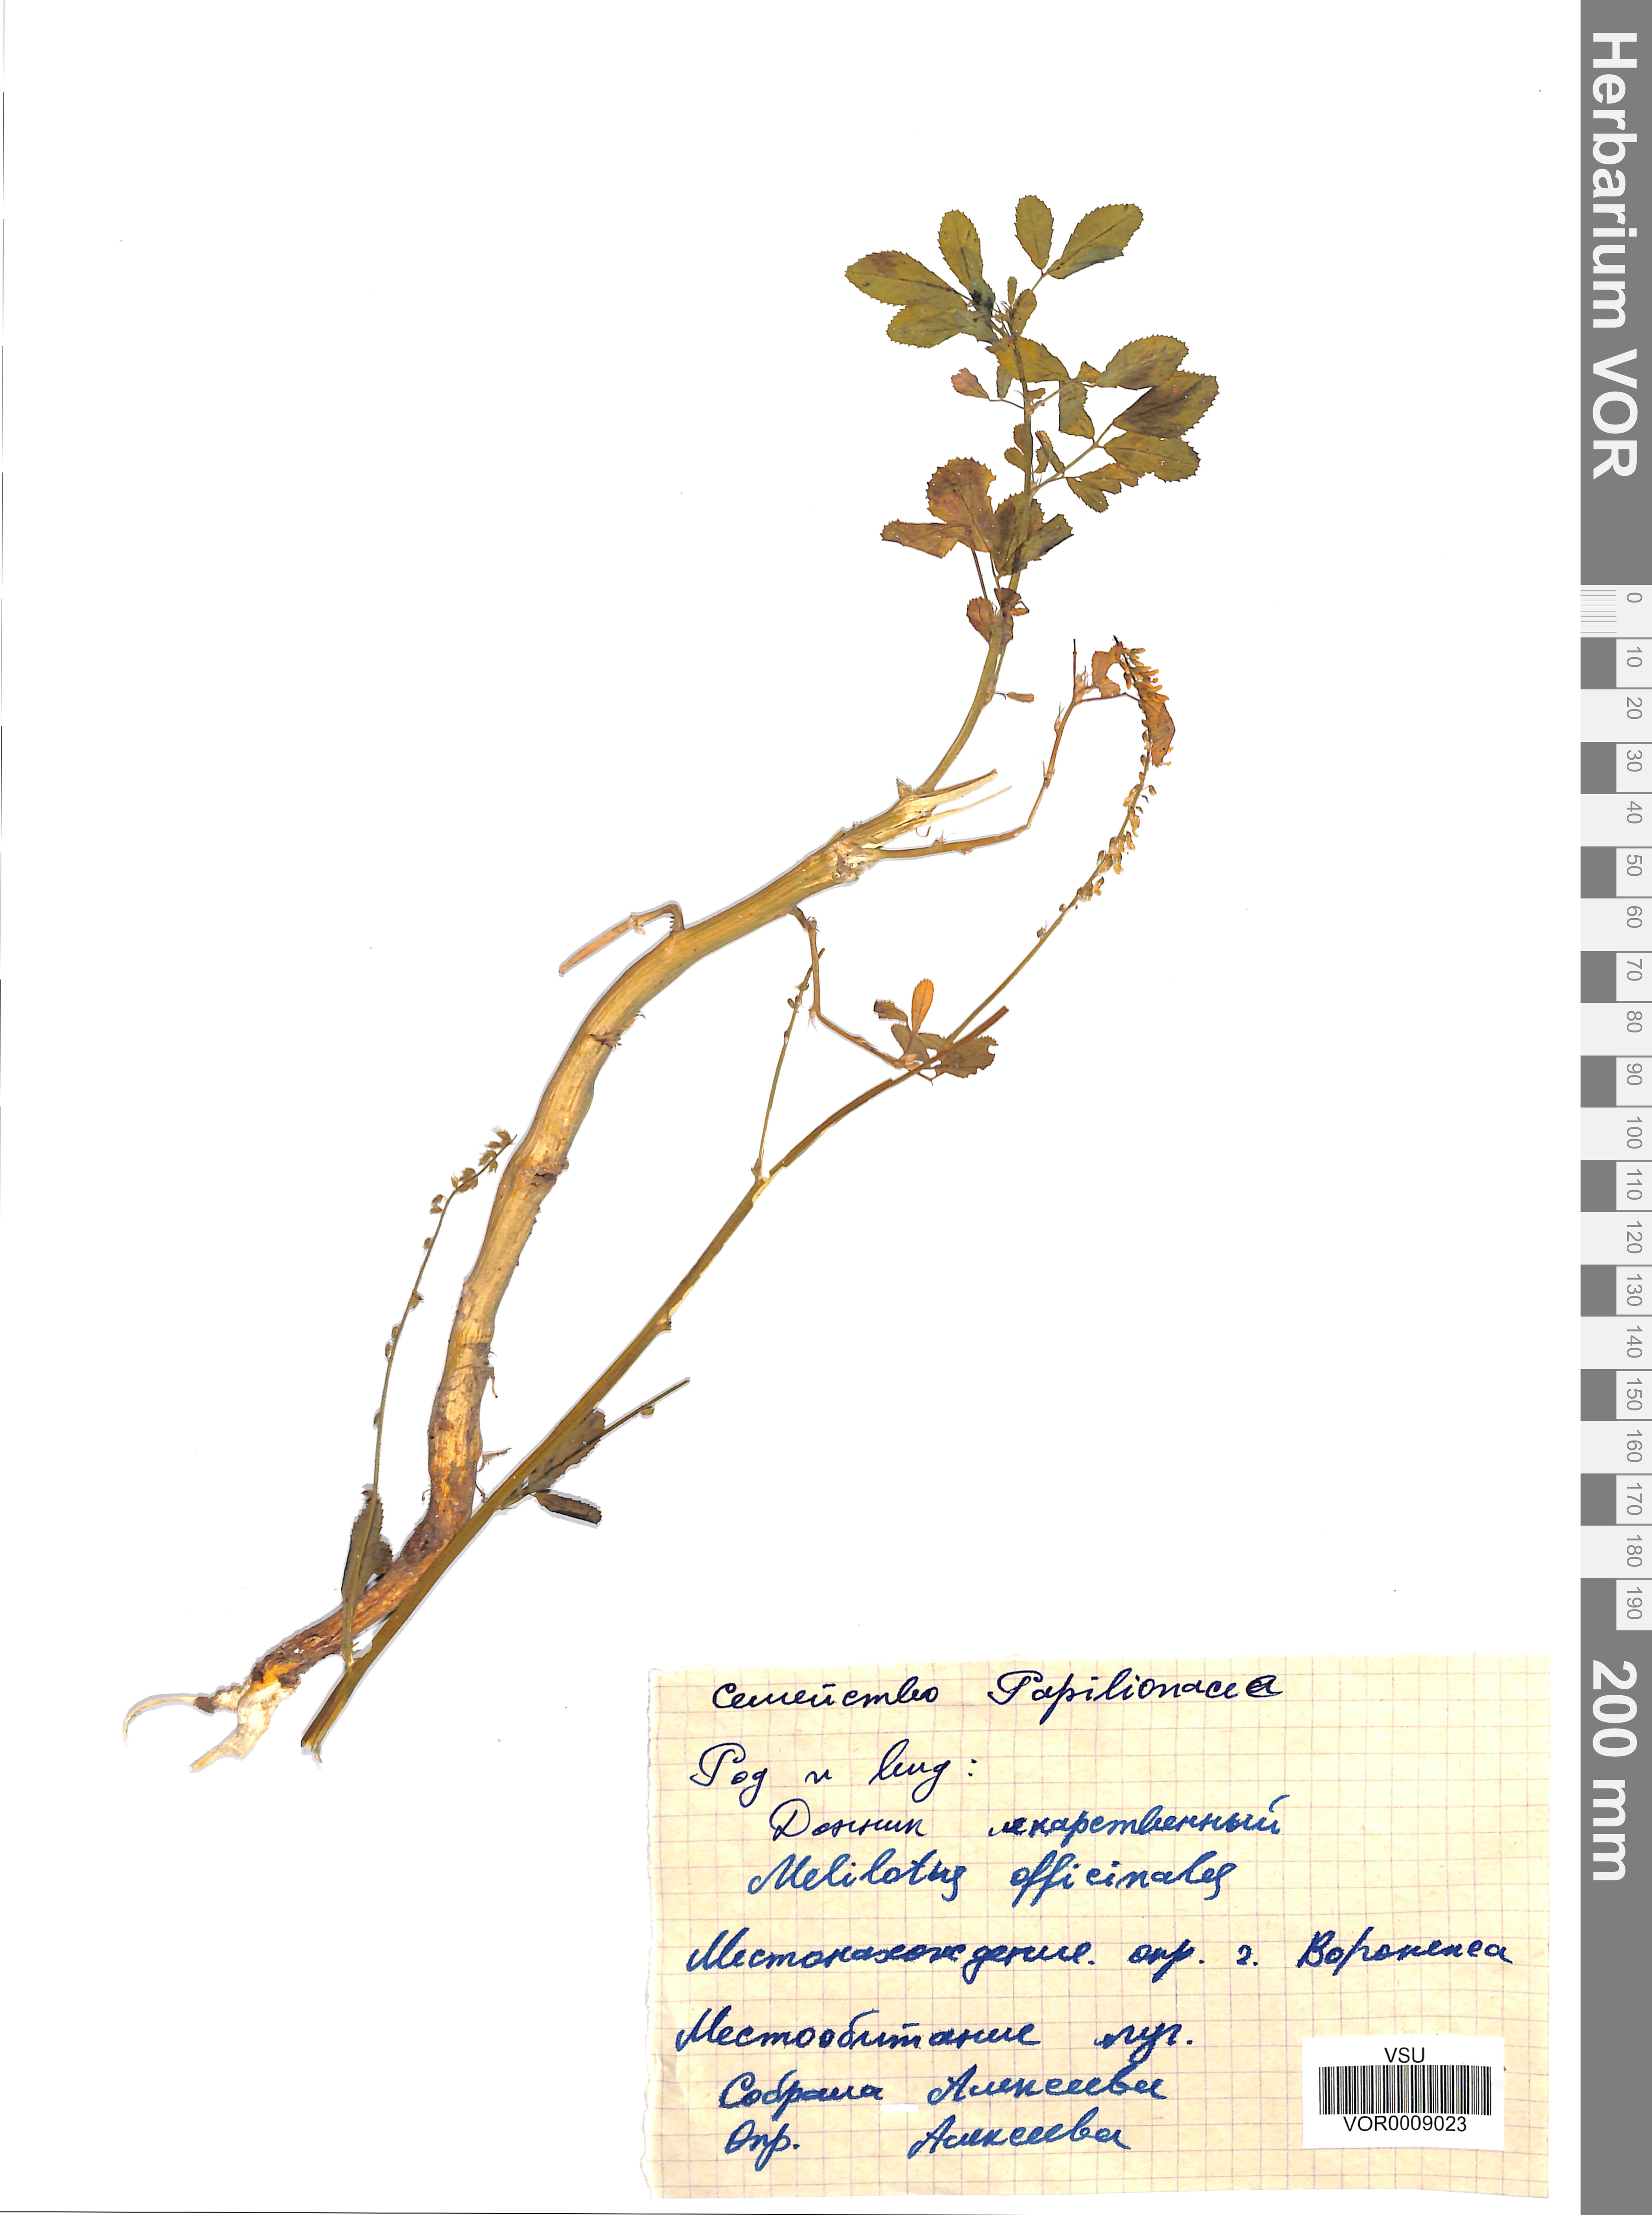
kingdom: Plantae
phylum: Tracheophyta
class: Magnoliopsida
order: Fabales
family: Fabaceae
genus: Melilotus
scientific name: Melilotus officinalis
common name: Sweetclover
